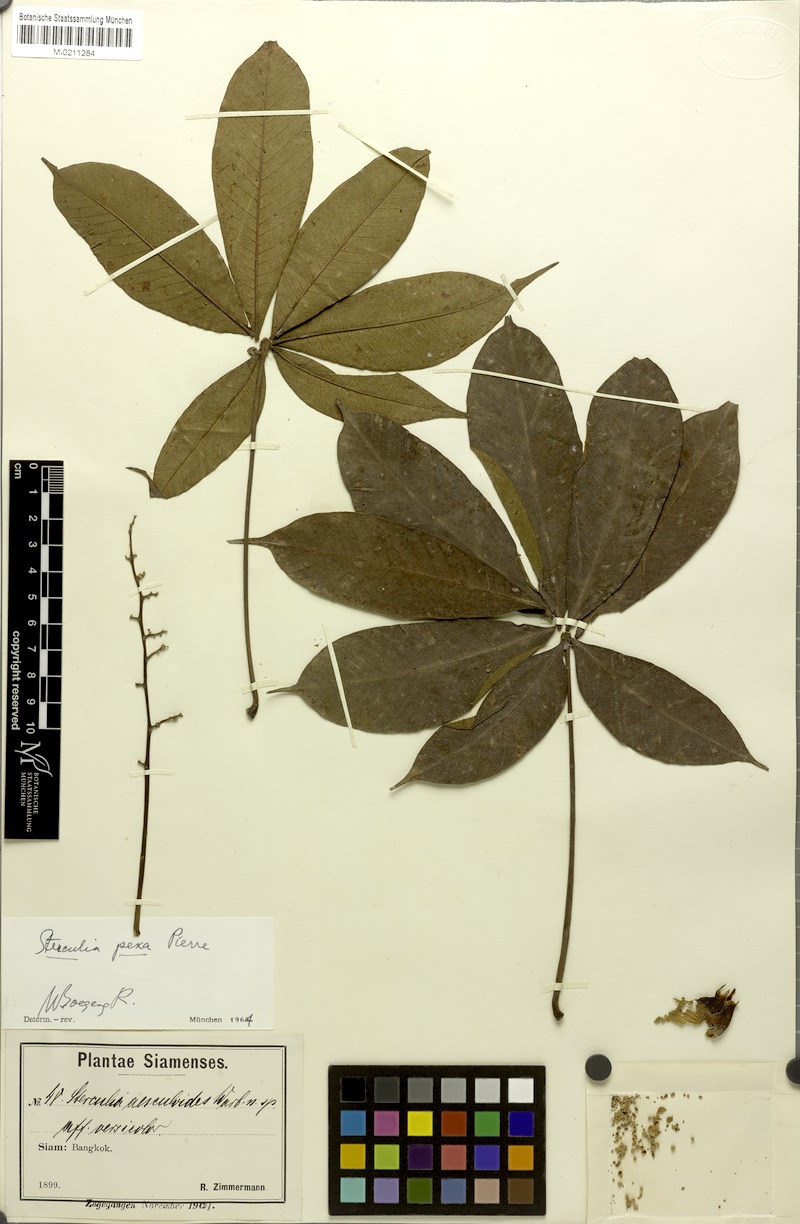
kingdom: Plantae
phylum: Tracheophyta
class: Magnoliopsida
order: Malvales
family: Malvaceae
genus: Sterculia
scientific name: Sterculia pexa
